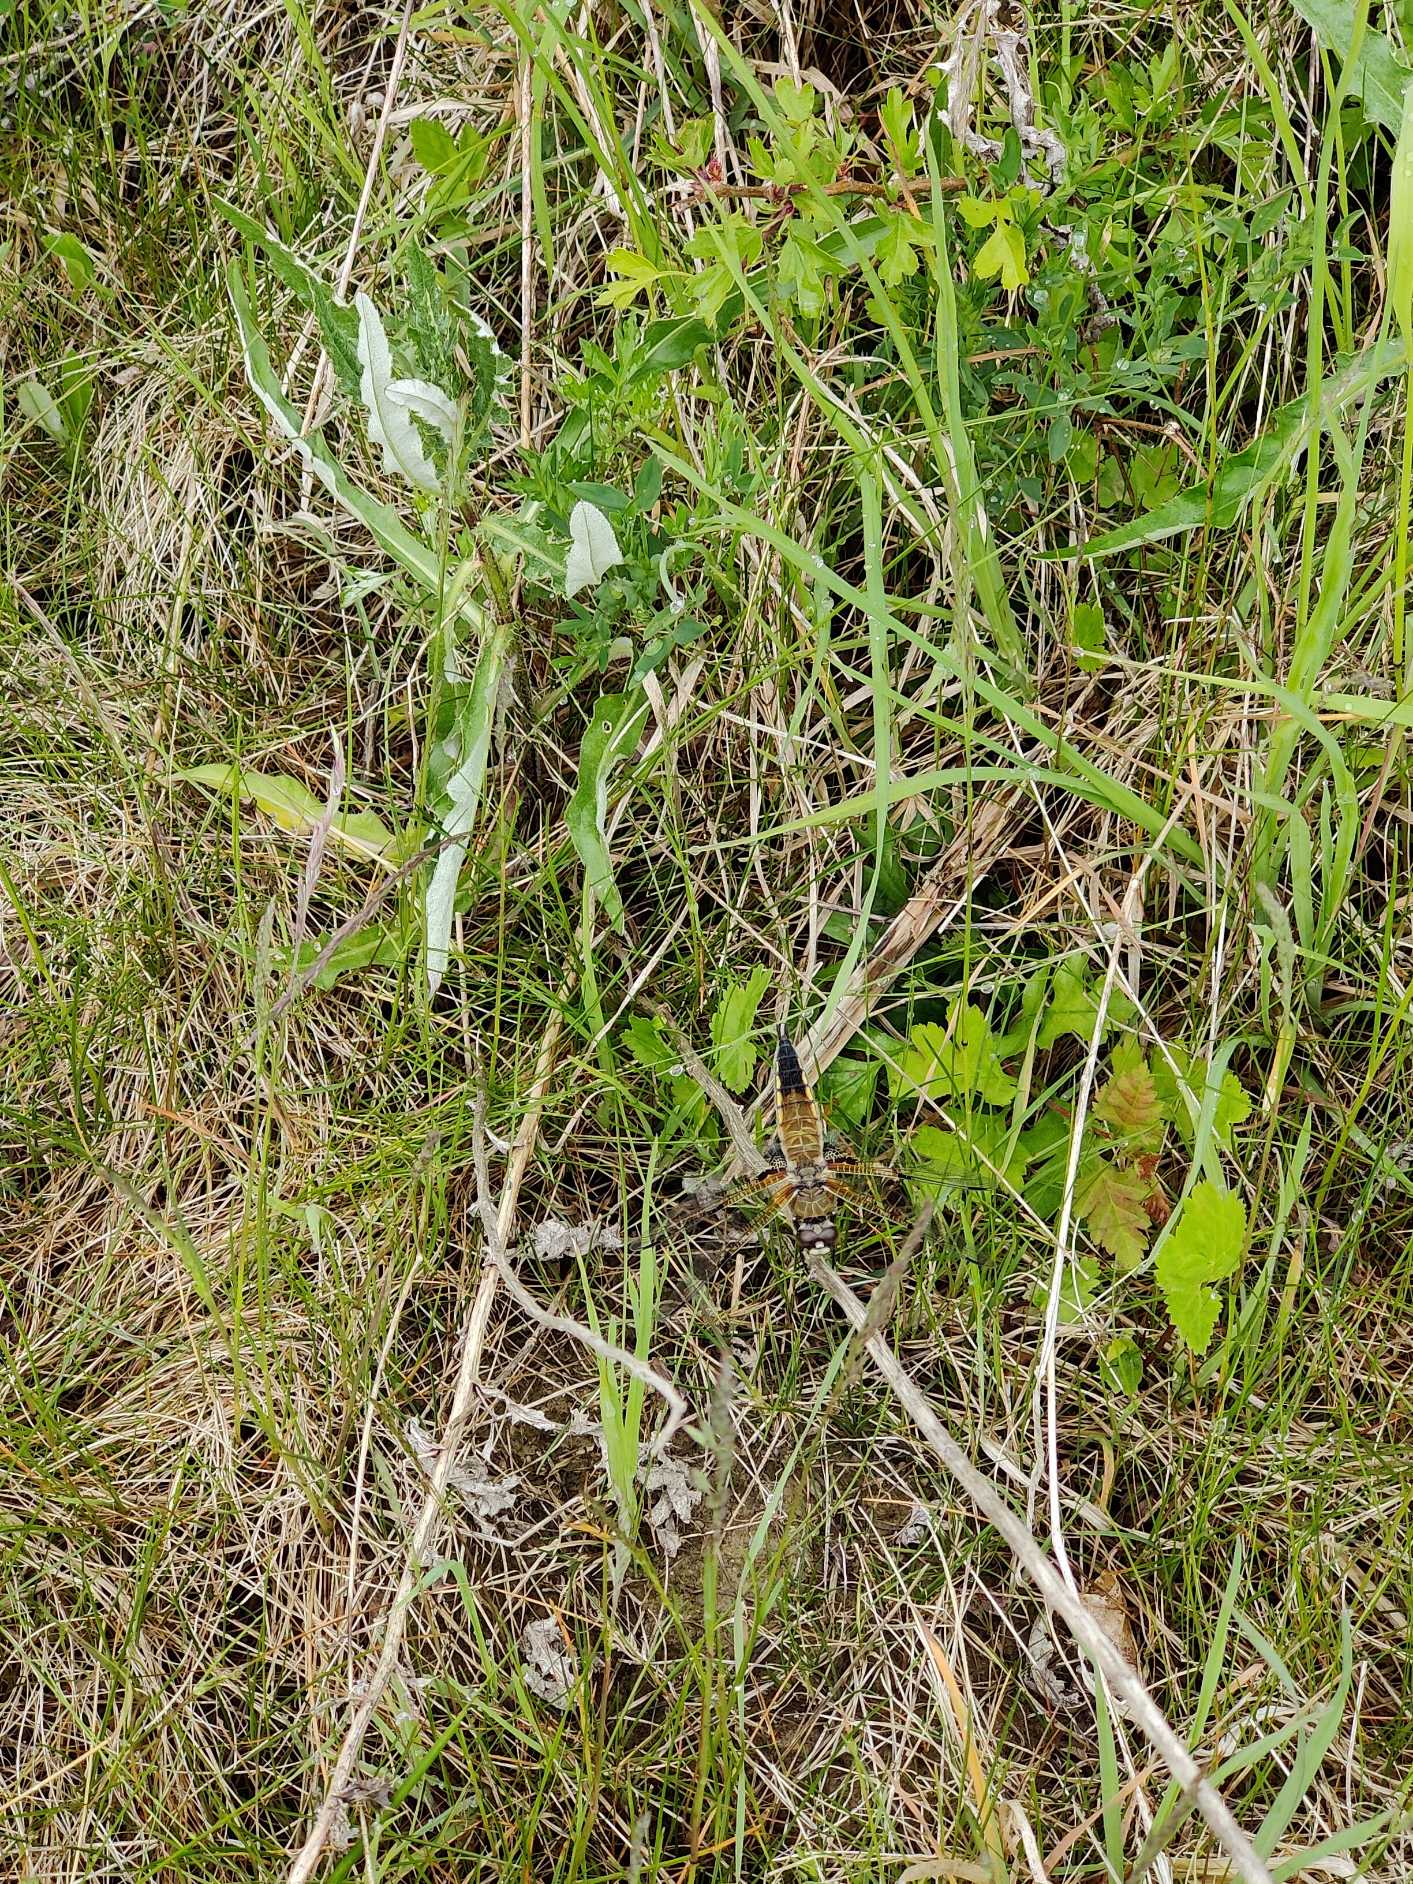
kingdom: Animalia
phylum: Arthropoda
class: Insecta
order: Odonata
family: Libellulidae
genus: Libellula
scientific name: Libellula quadrimaculata
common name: Fireplettet libel
